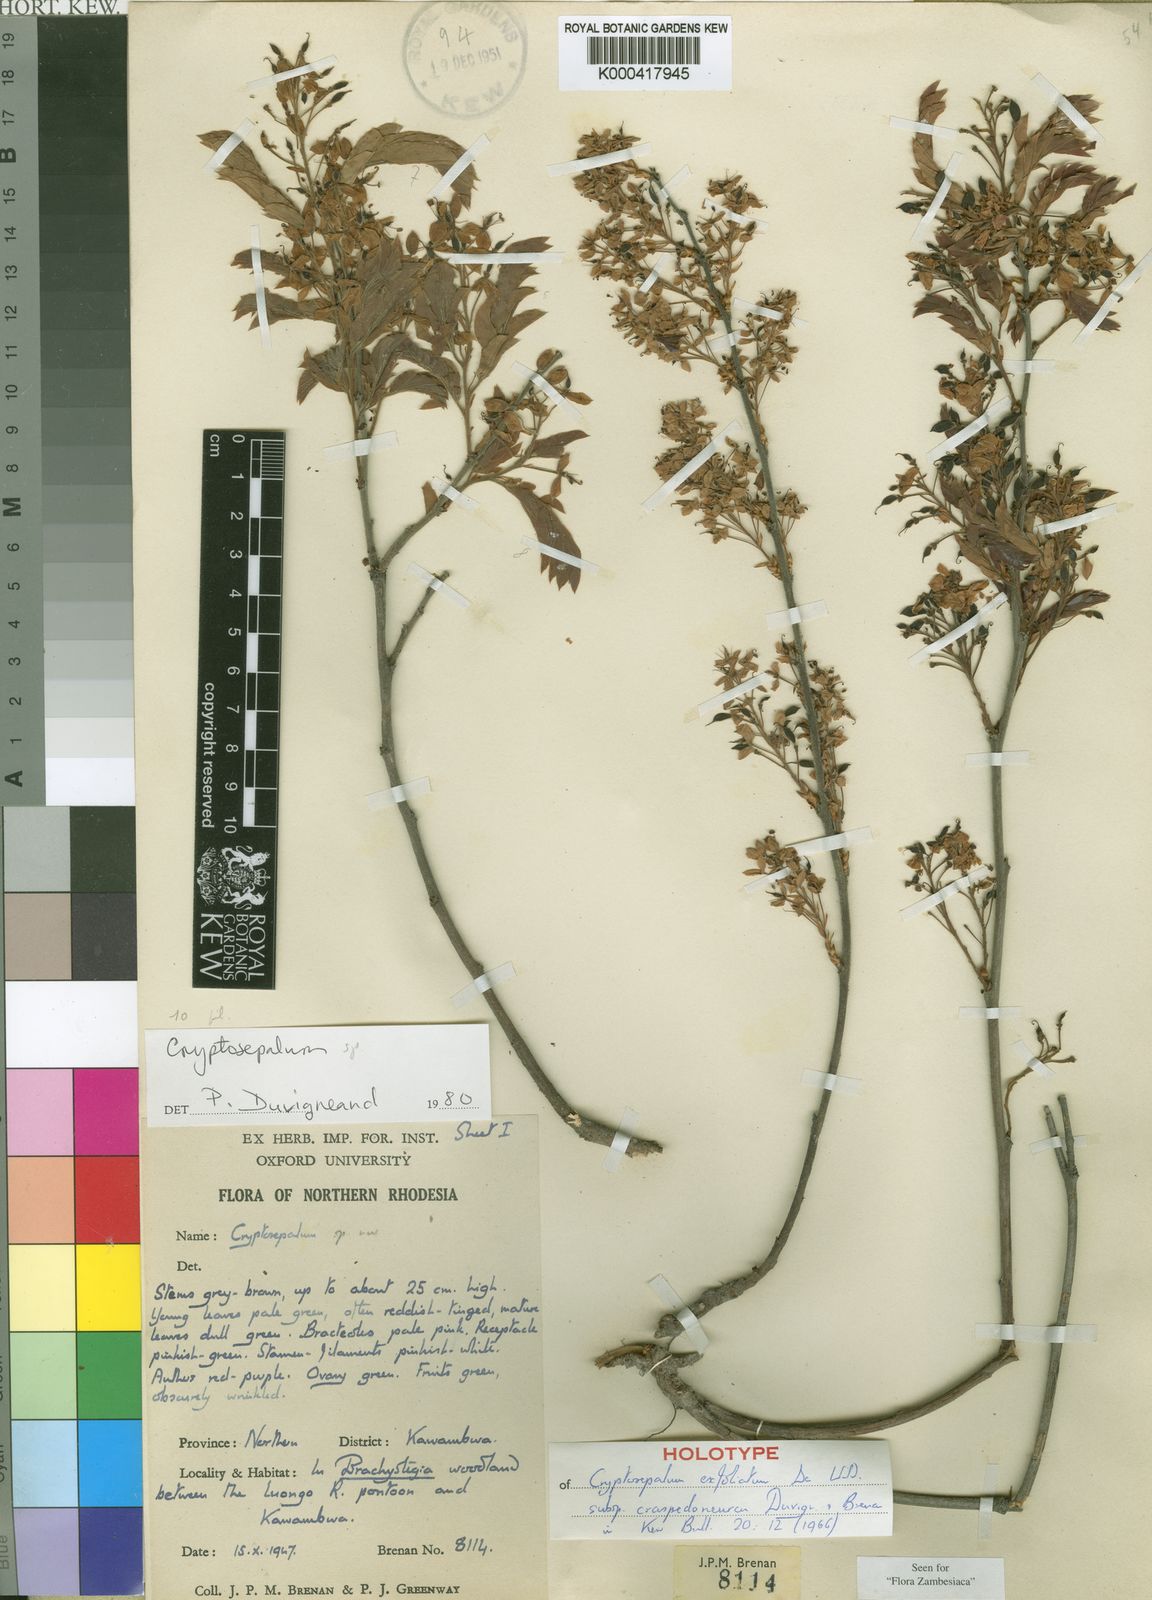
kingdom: Plantae
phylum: Tracheophyta
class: Magnoliopsida
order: Fabales
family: Fabaceae
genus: Cryptosepalum
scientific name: Cryptosepalum exfoliatum
